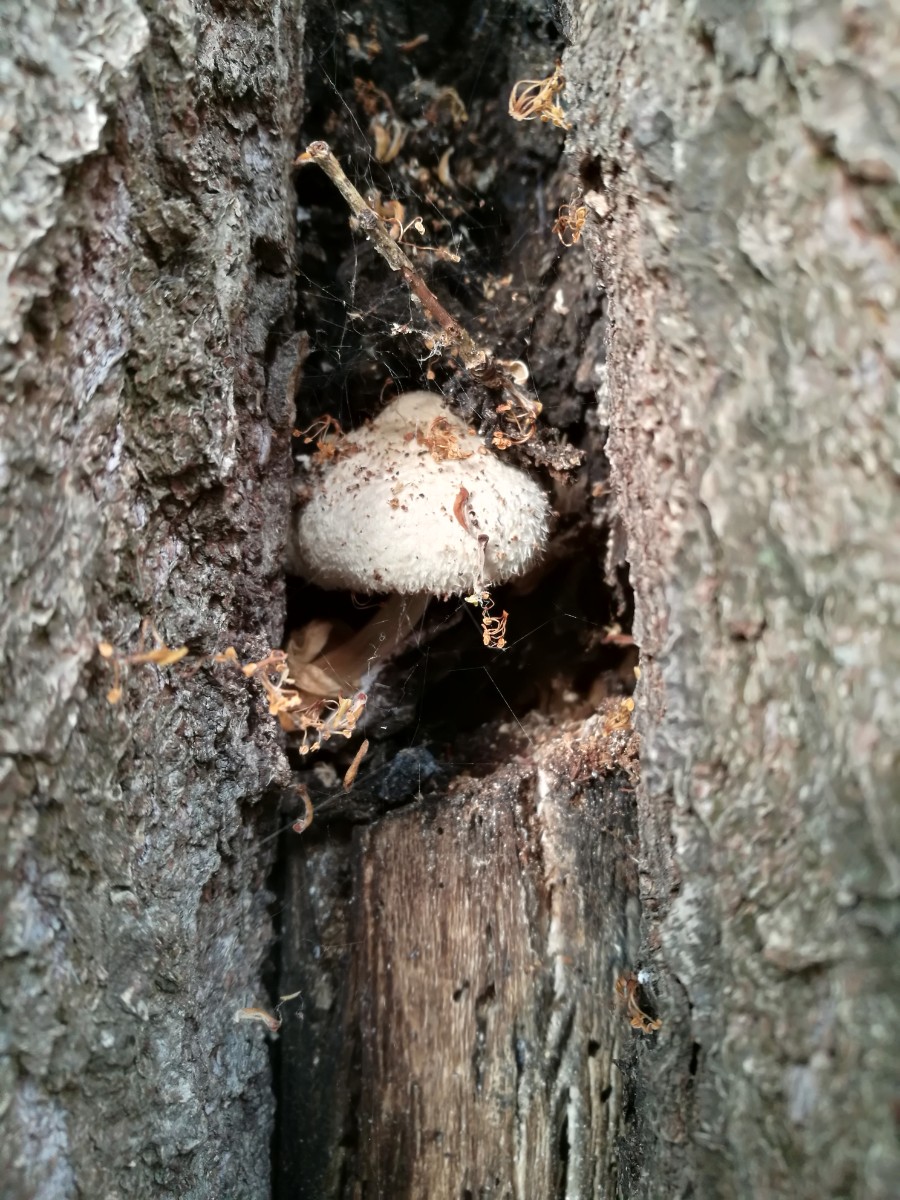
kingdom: Fungi
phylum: Basidiomycota
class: Agaricomycetes
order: Agaricales
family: Pluteaceae
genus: Volvariella
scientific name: Volvariella bombycina
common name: silkehåret posesvamp
